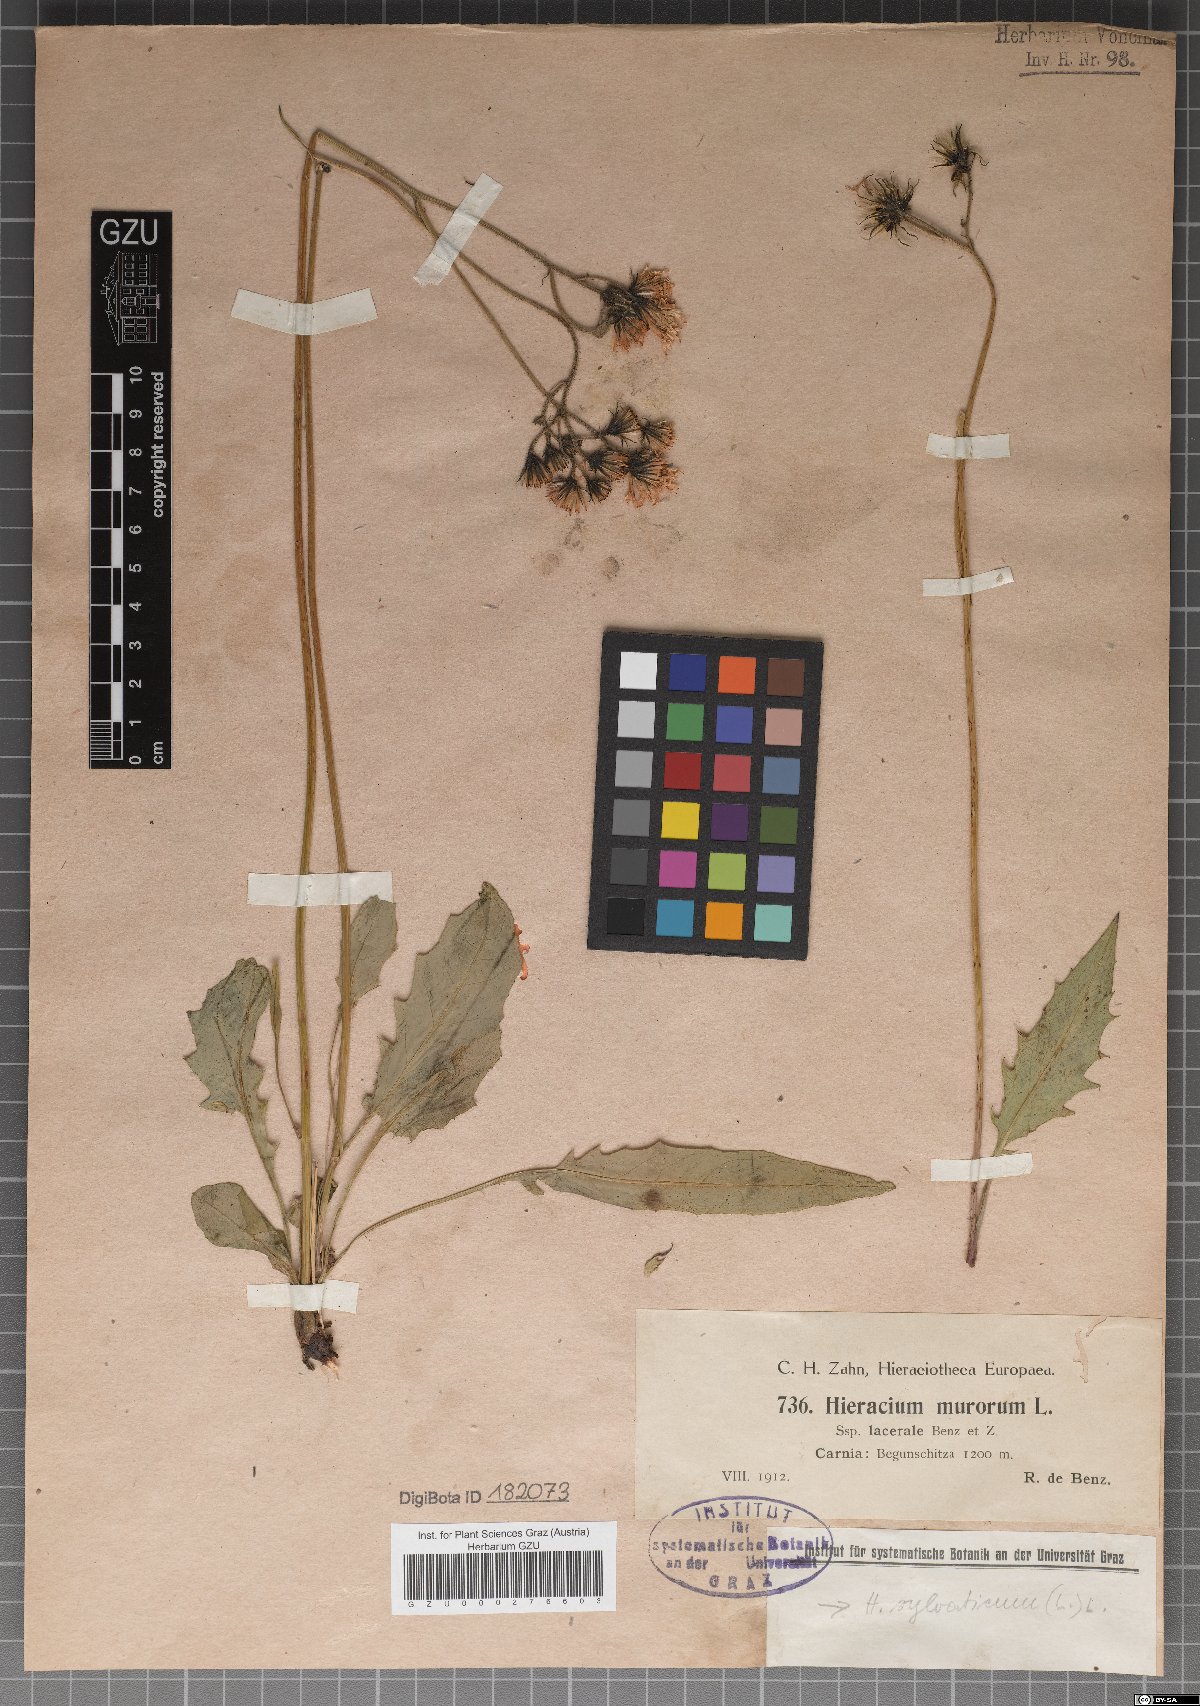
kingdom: Plantae
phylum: Tracheophyta
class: Magnoliopsida
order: Asterales
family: Asteraceae
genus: Hieracium
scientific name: Hieracium lacerabile
